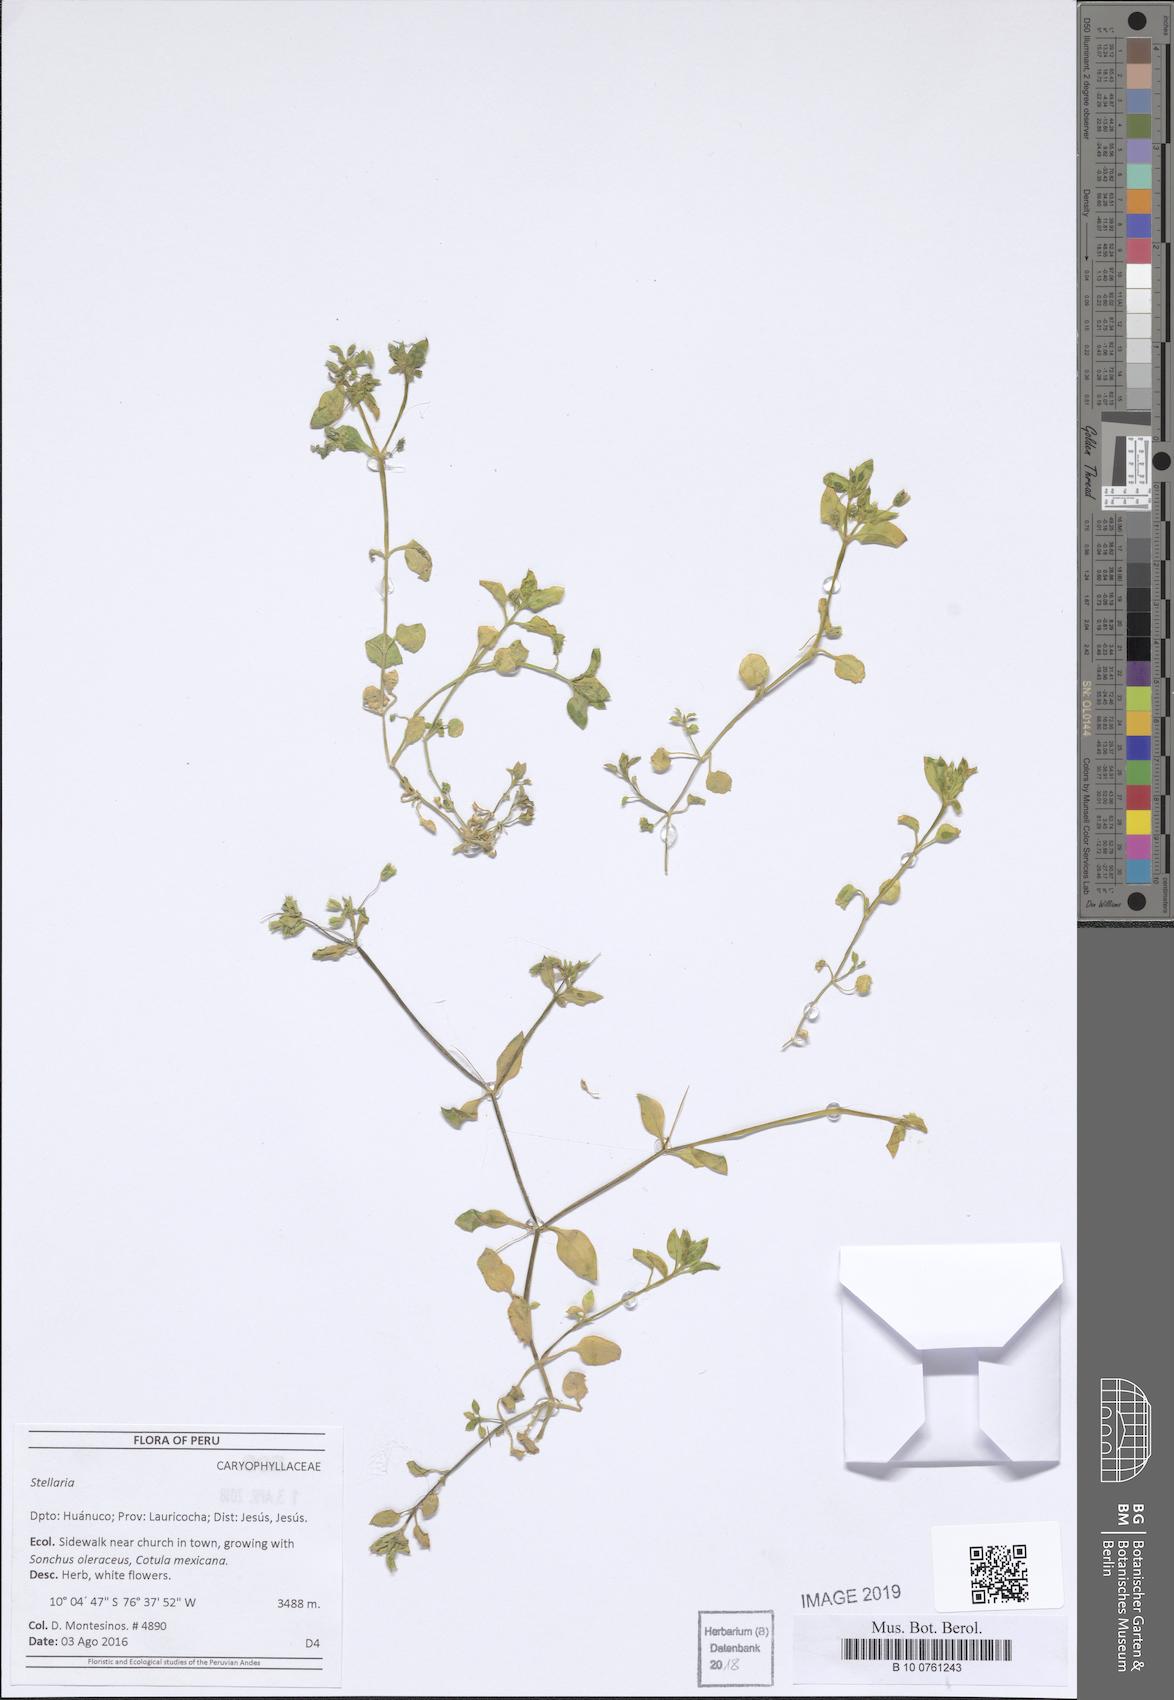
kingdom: Plantae
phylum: Tracheophyta
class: Magnoliopsida
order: Caryophyllales
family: Caryophyllaceae
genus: Stellaria
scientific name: Stellaria
